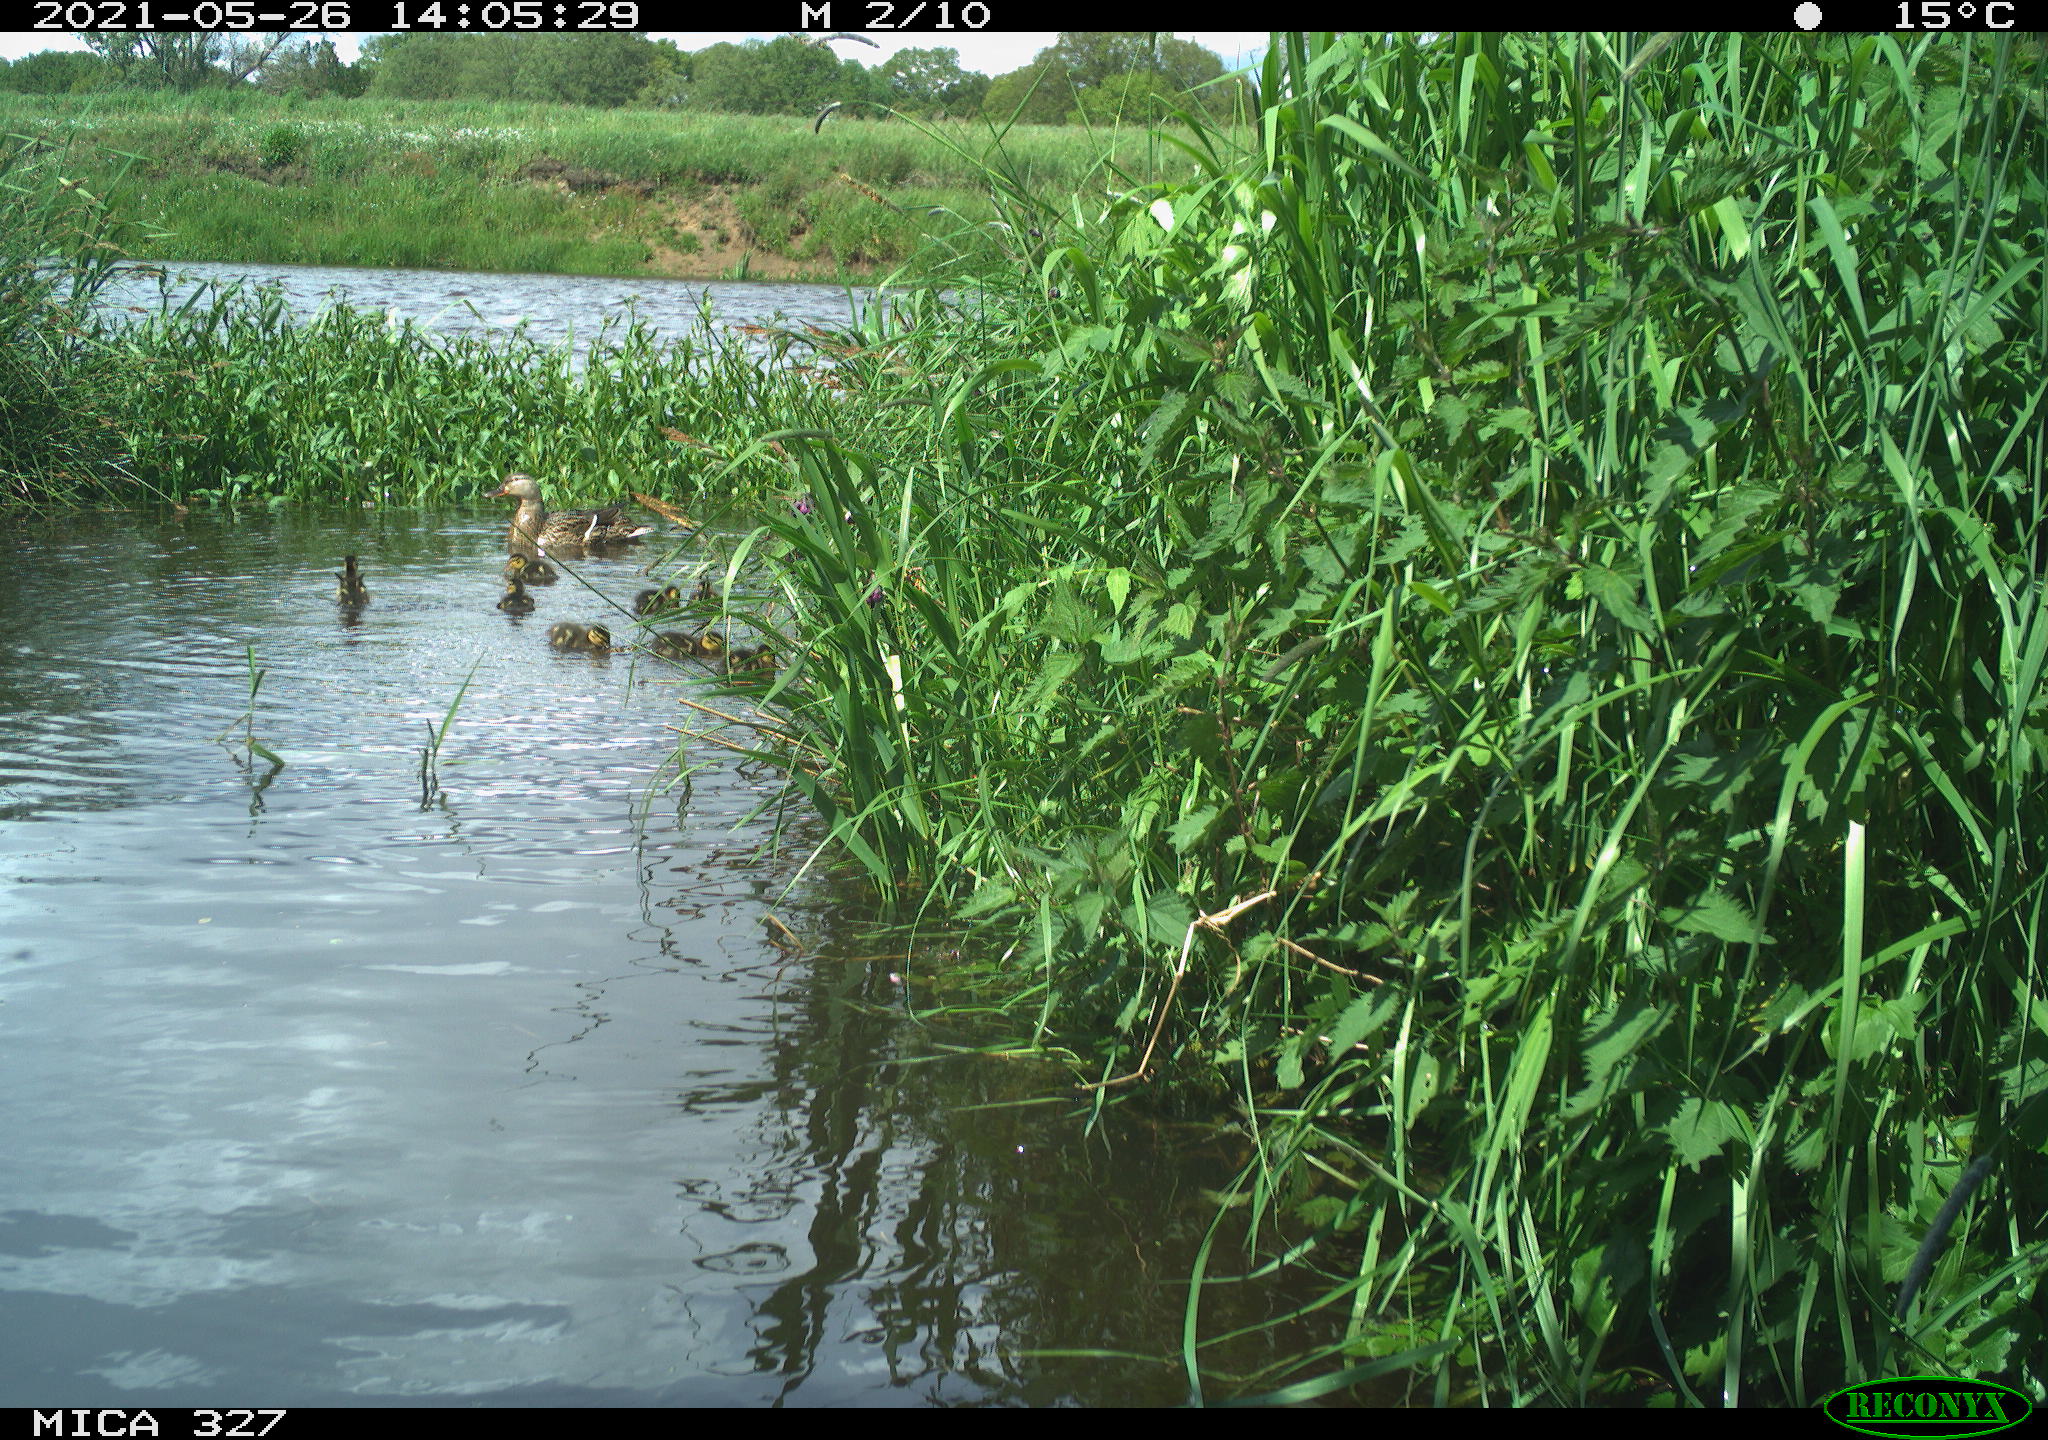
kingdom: Animalia
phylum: Chordata
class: Aves
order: Anseriformes
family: Anatidae
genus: Anas
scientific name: Anas platyrhynchos
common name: Mallard
